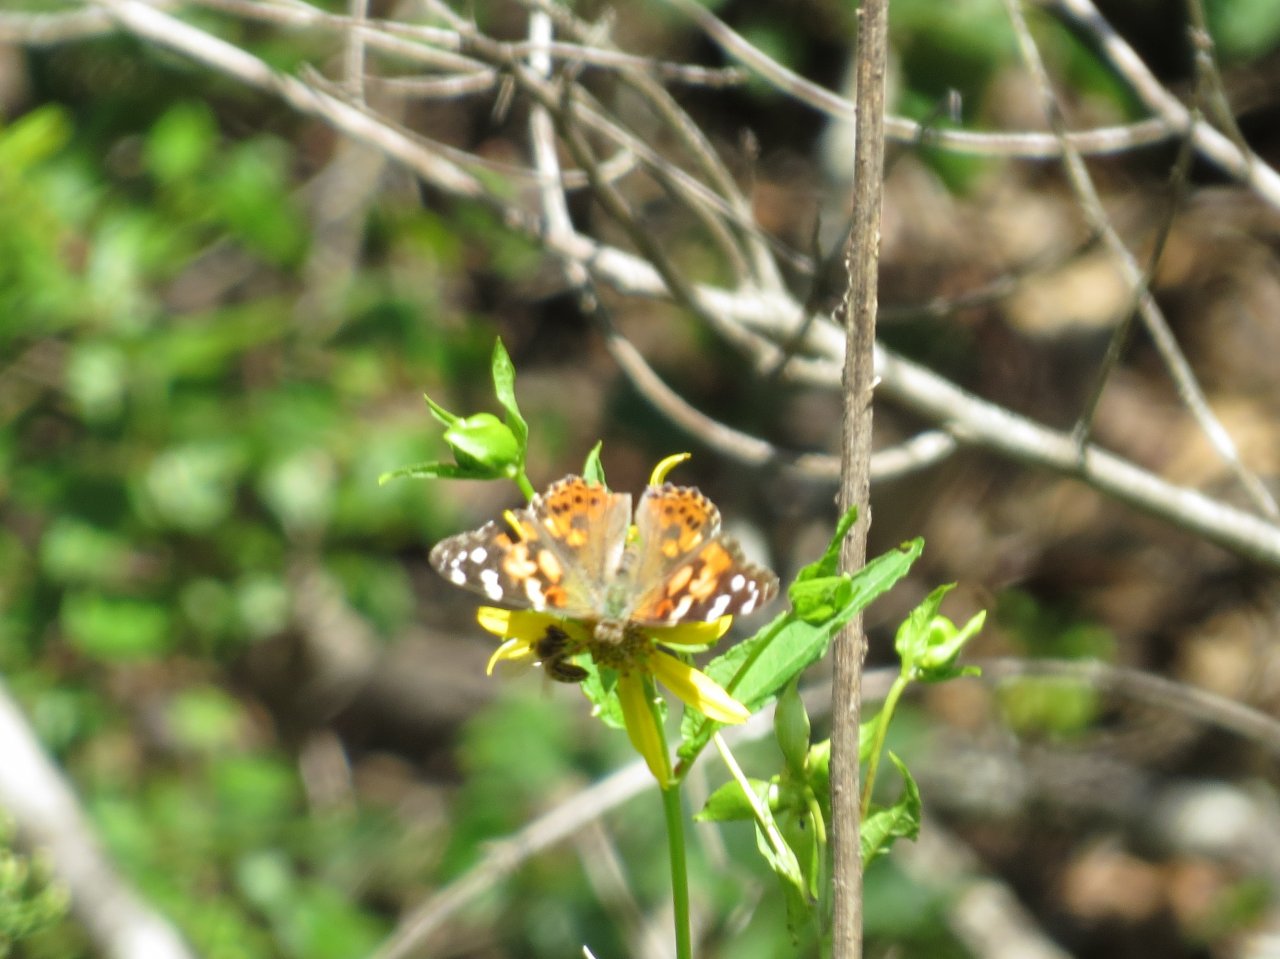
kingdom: Animalia
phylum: Arthropoda
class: Insecta
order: Lepidoptera
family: Nymphalidae
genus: Vanessa
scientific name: Vanessa cardui
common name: Painted Lady
